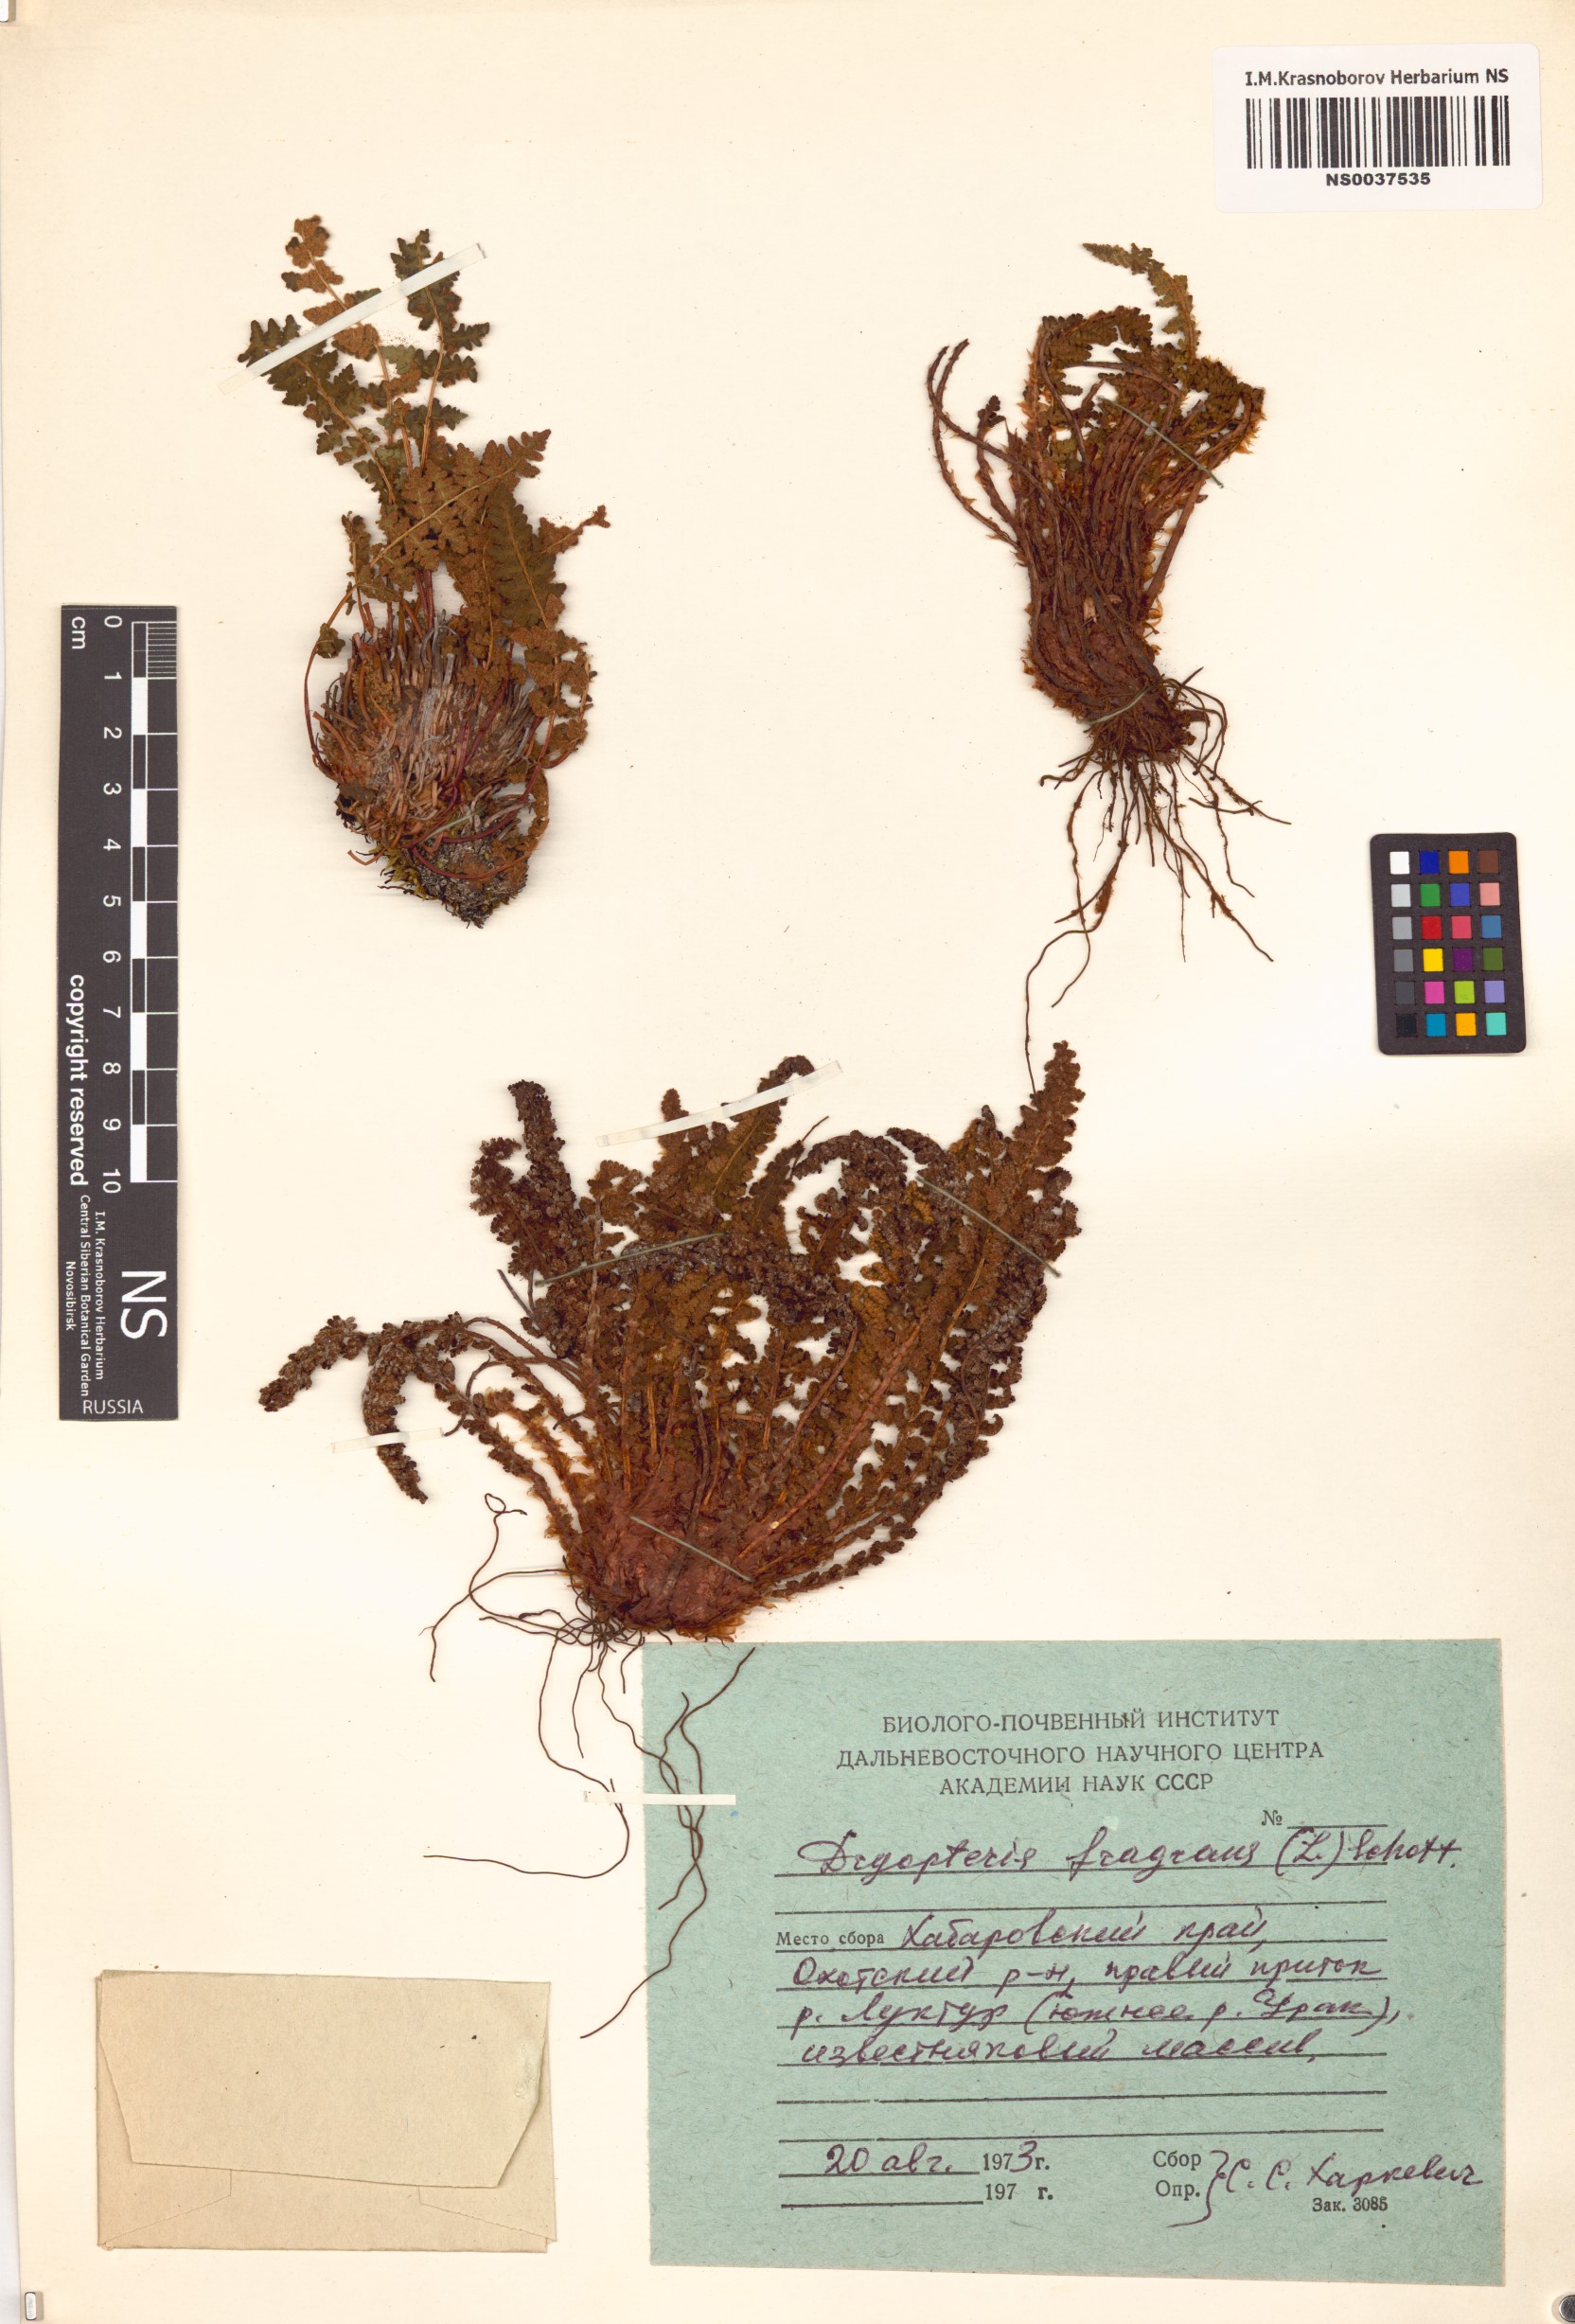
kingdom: Plantae
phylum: Tracheophyta
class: Polypodiopsida
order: Polypodiales
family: Dryopteridaceae
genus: Dryopteris
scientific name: Dryopteris fragrans
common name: Fragrant wood fern
